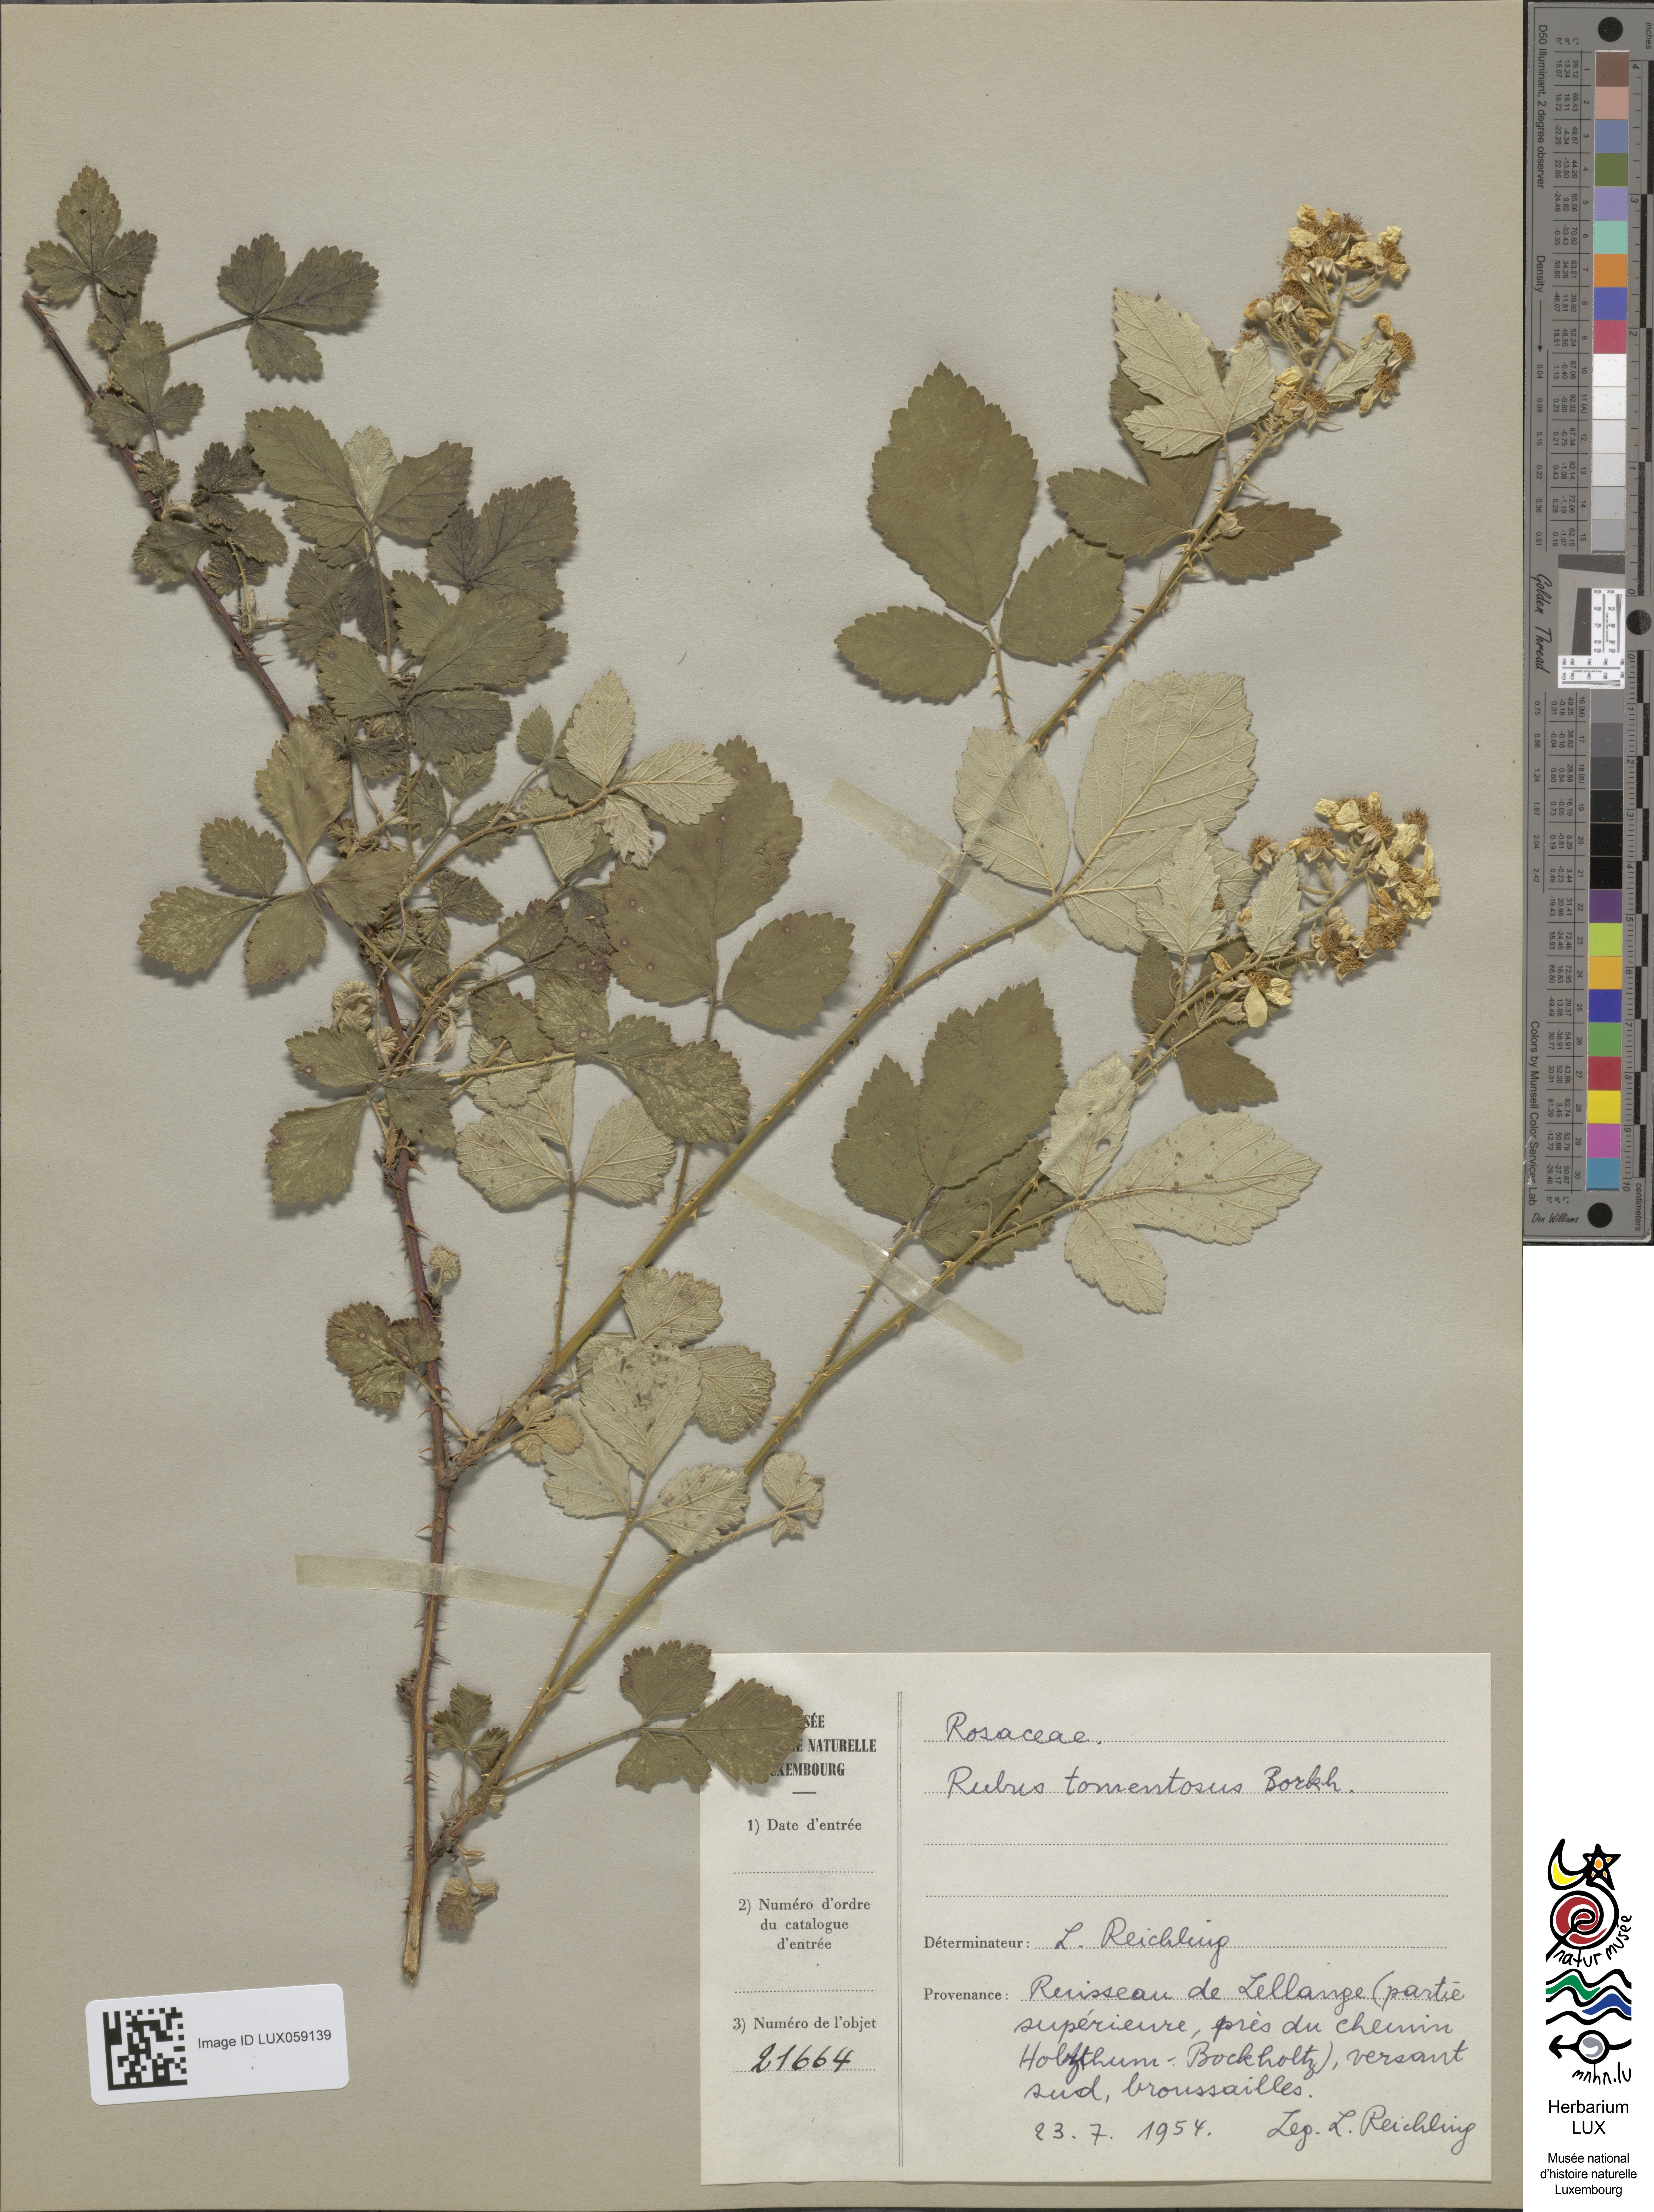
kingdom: Plantae
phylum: Tracheophyta
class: Magnoliopsida
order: Rosales
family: Rosaceae
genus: Rubus
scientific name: Rubus canescens
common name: Wooly blackberry
